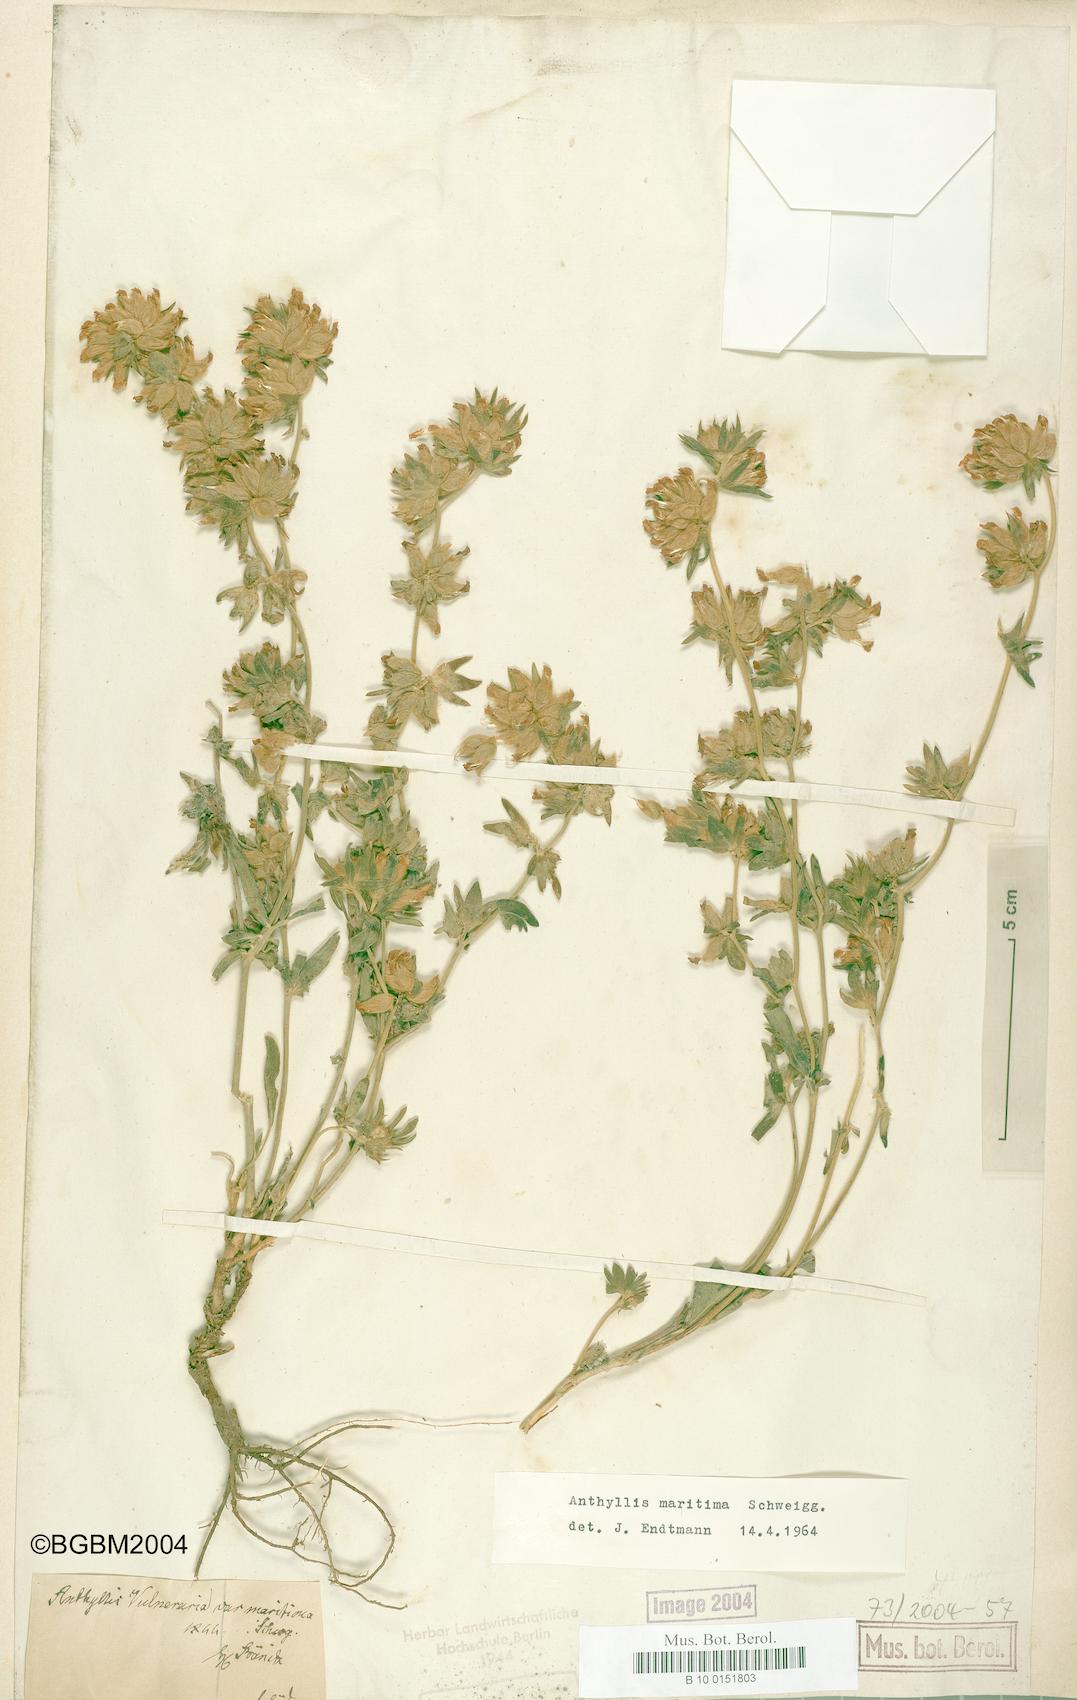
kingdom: Plantae
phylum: Tracheophyta
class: Magnoliopsida
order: Fabales
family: Fabaceae
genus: Anthyllis
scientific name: Anthyllis vulneraria
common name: Kidney vetch
